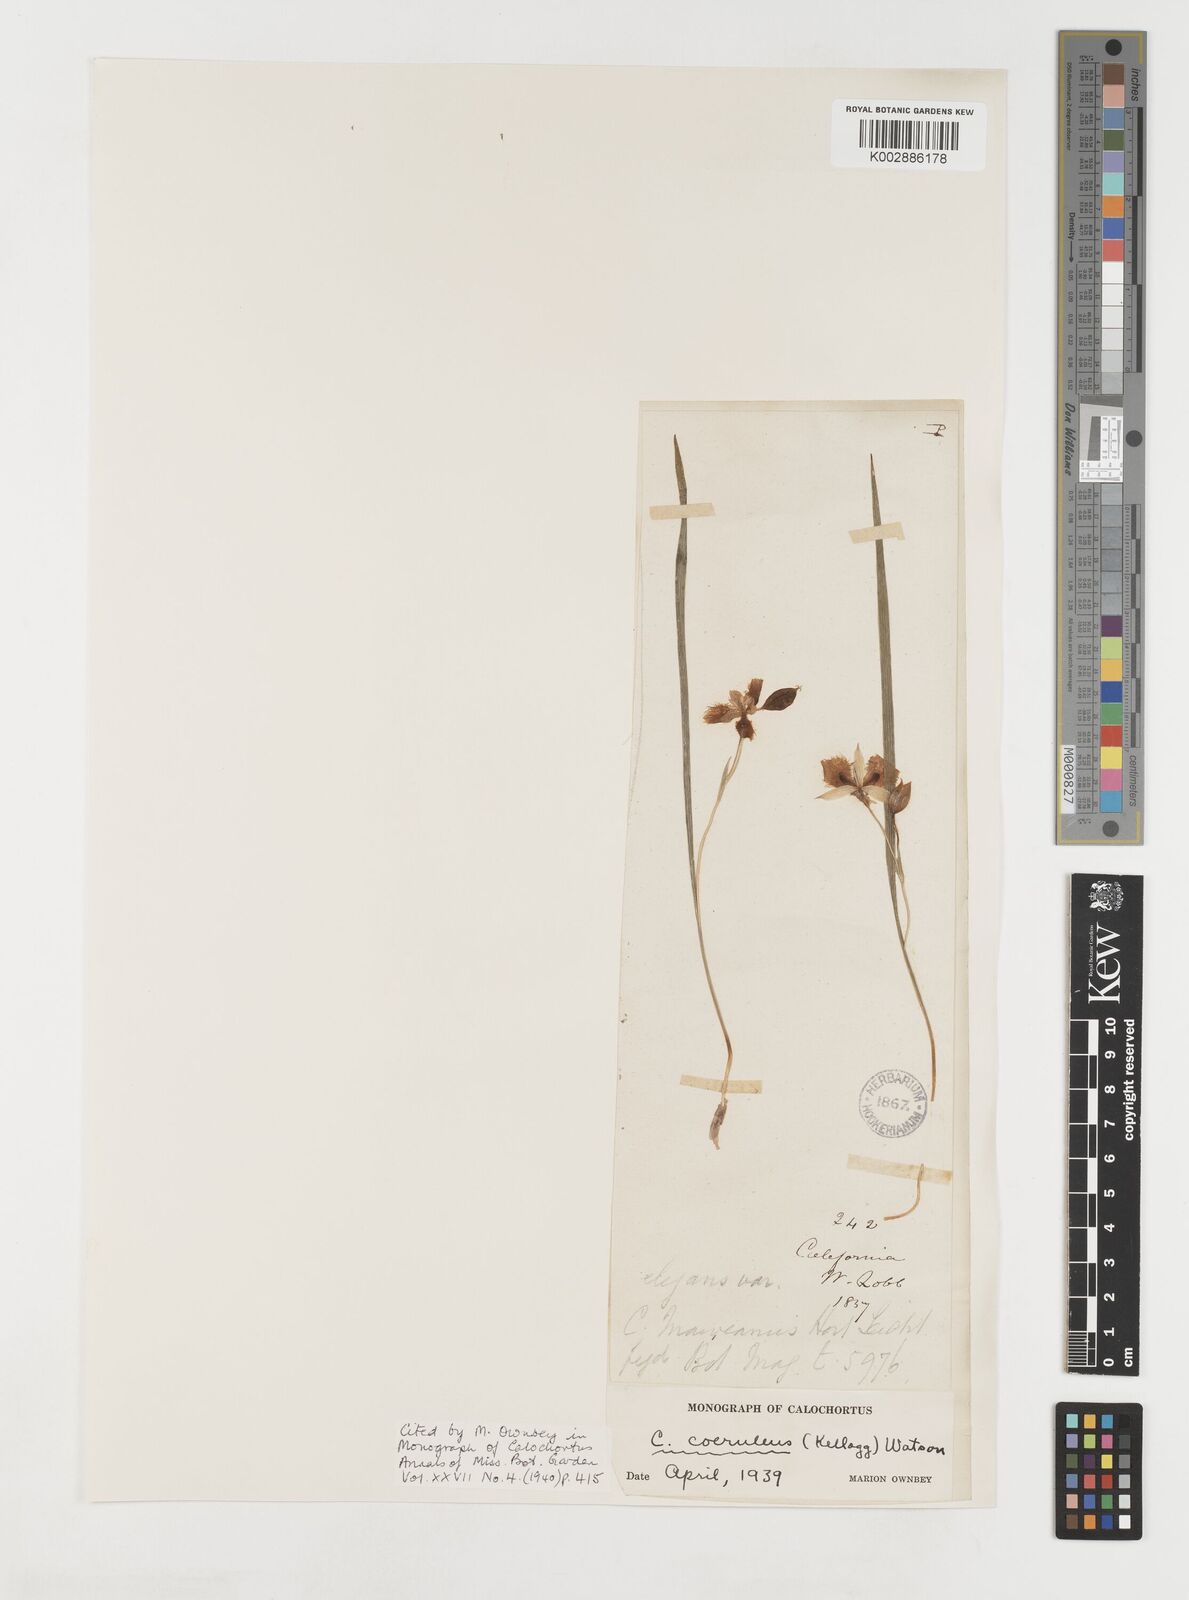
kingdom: Plantae
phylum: Tracheophyta
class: Liliopsida
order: Liliales
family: Liliaceae
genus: Calochortus
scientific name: Calochortus coeruleus
